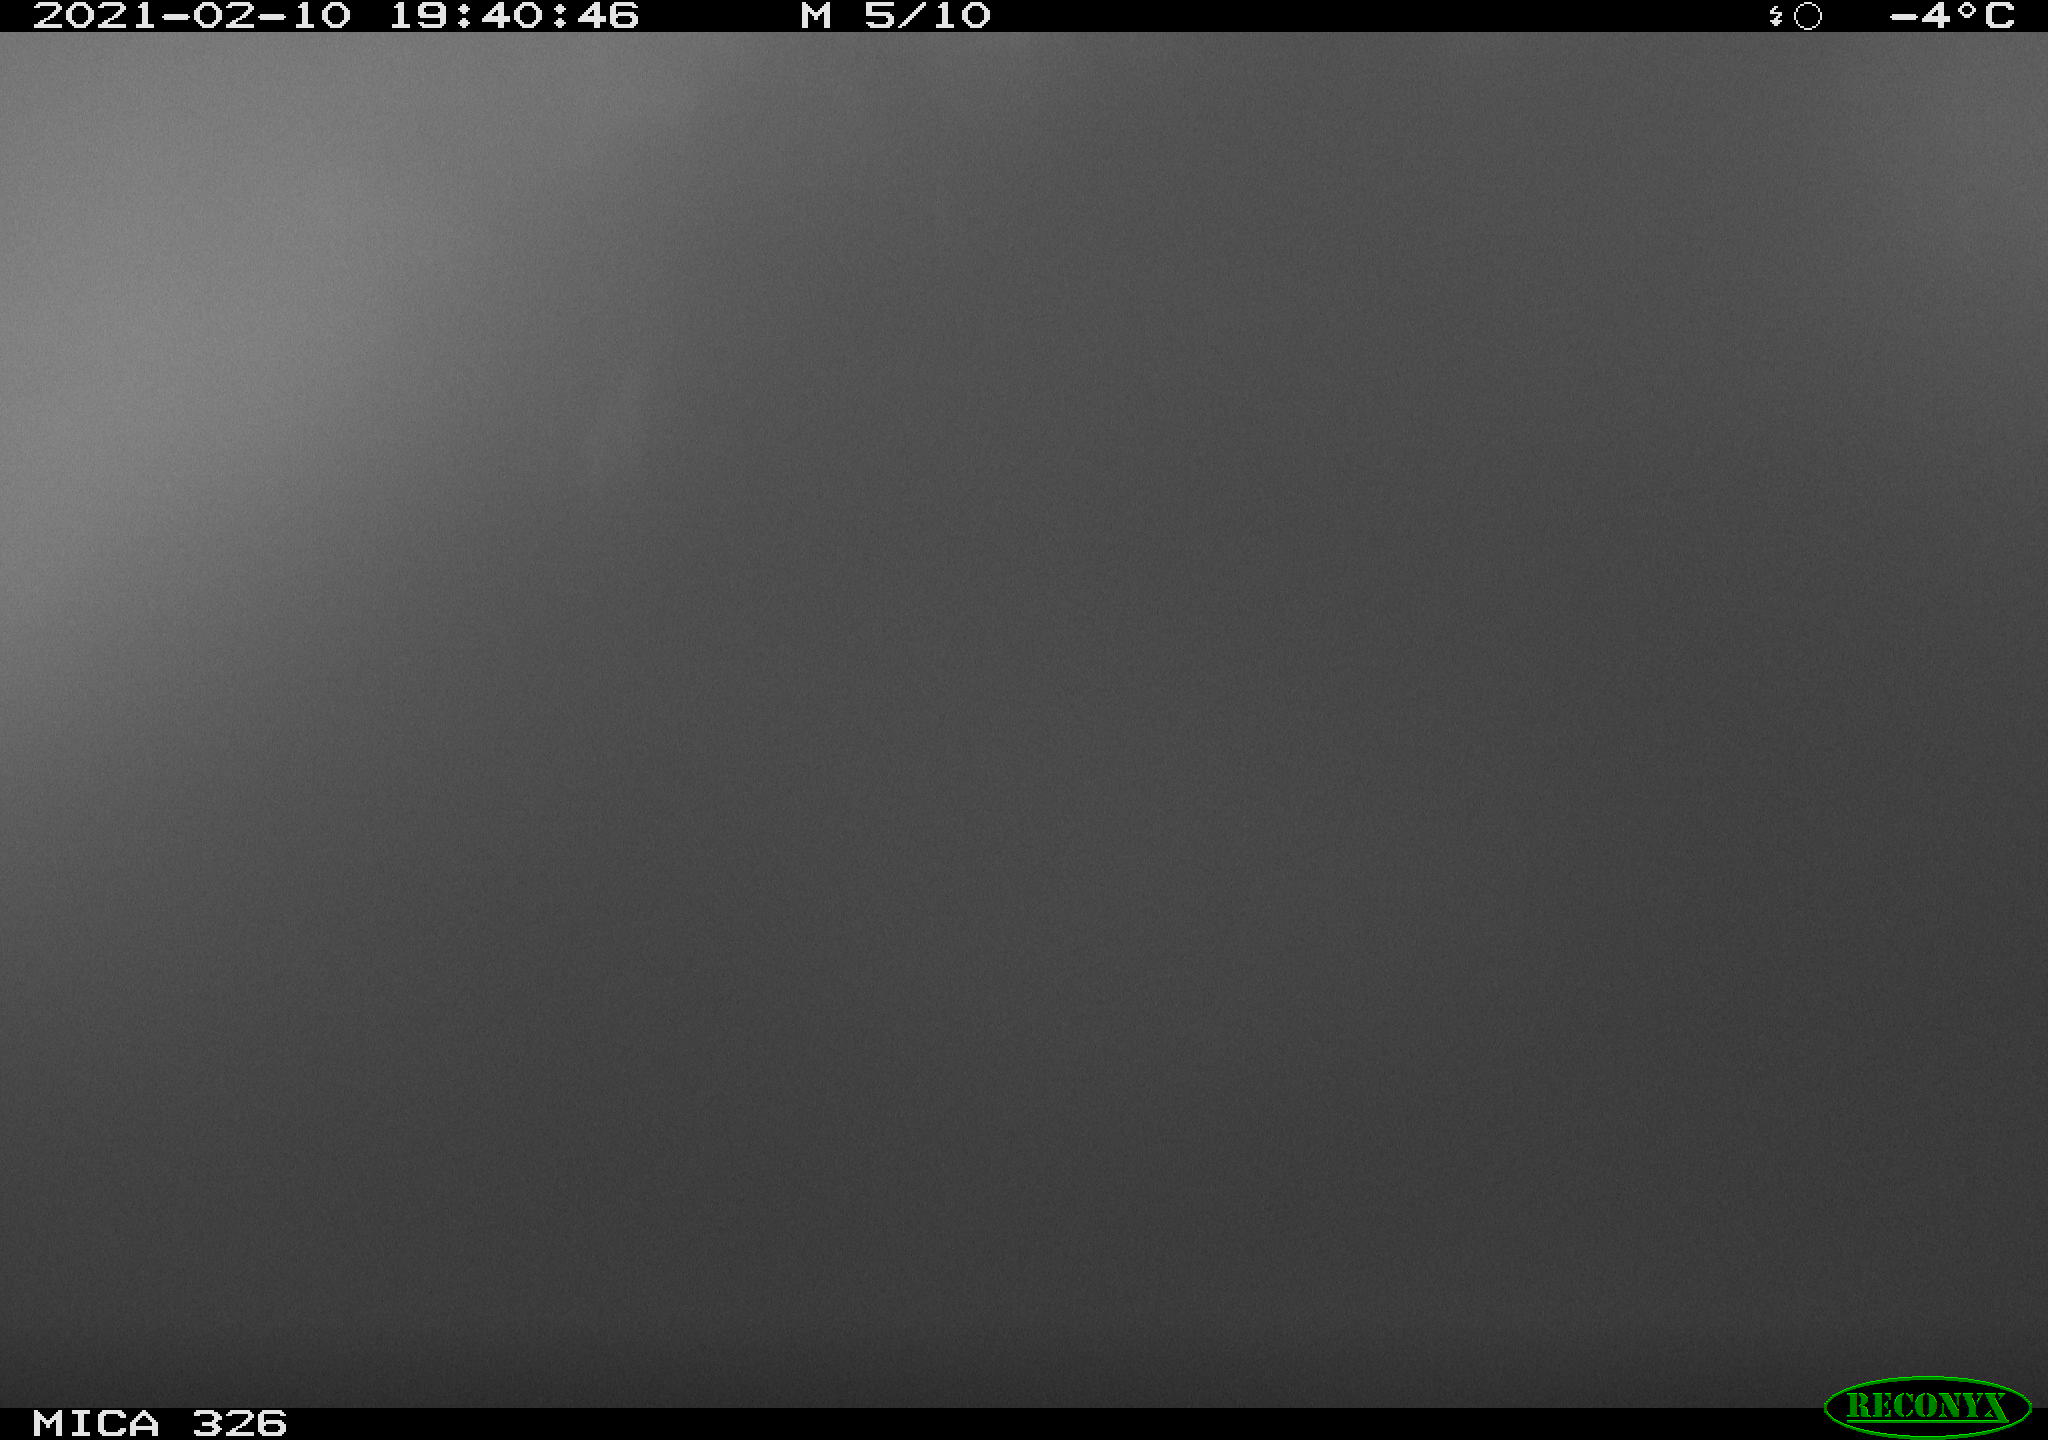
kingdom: Animalia
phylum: Chordata
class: Mammalia
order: Rodentia
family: Myocastoridae
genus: Myocastor
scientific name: Myocastor coypus
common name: Coypu
